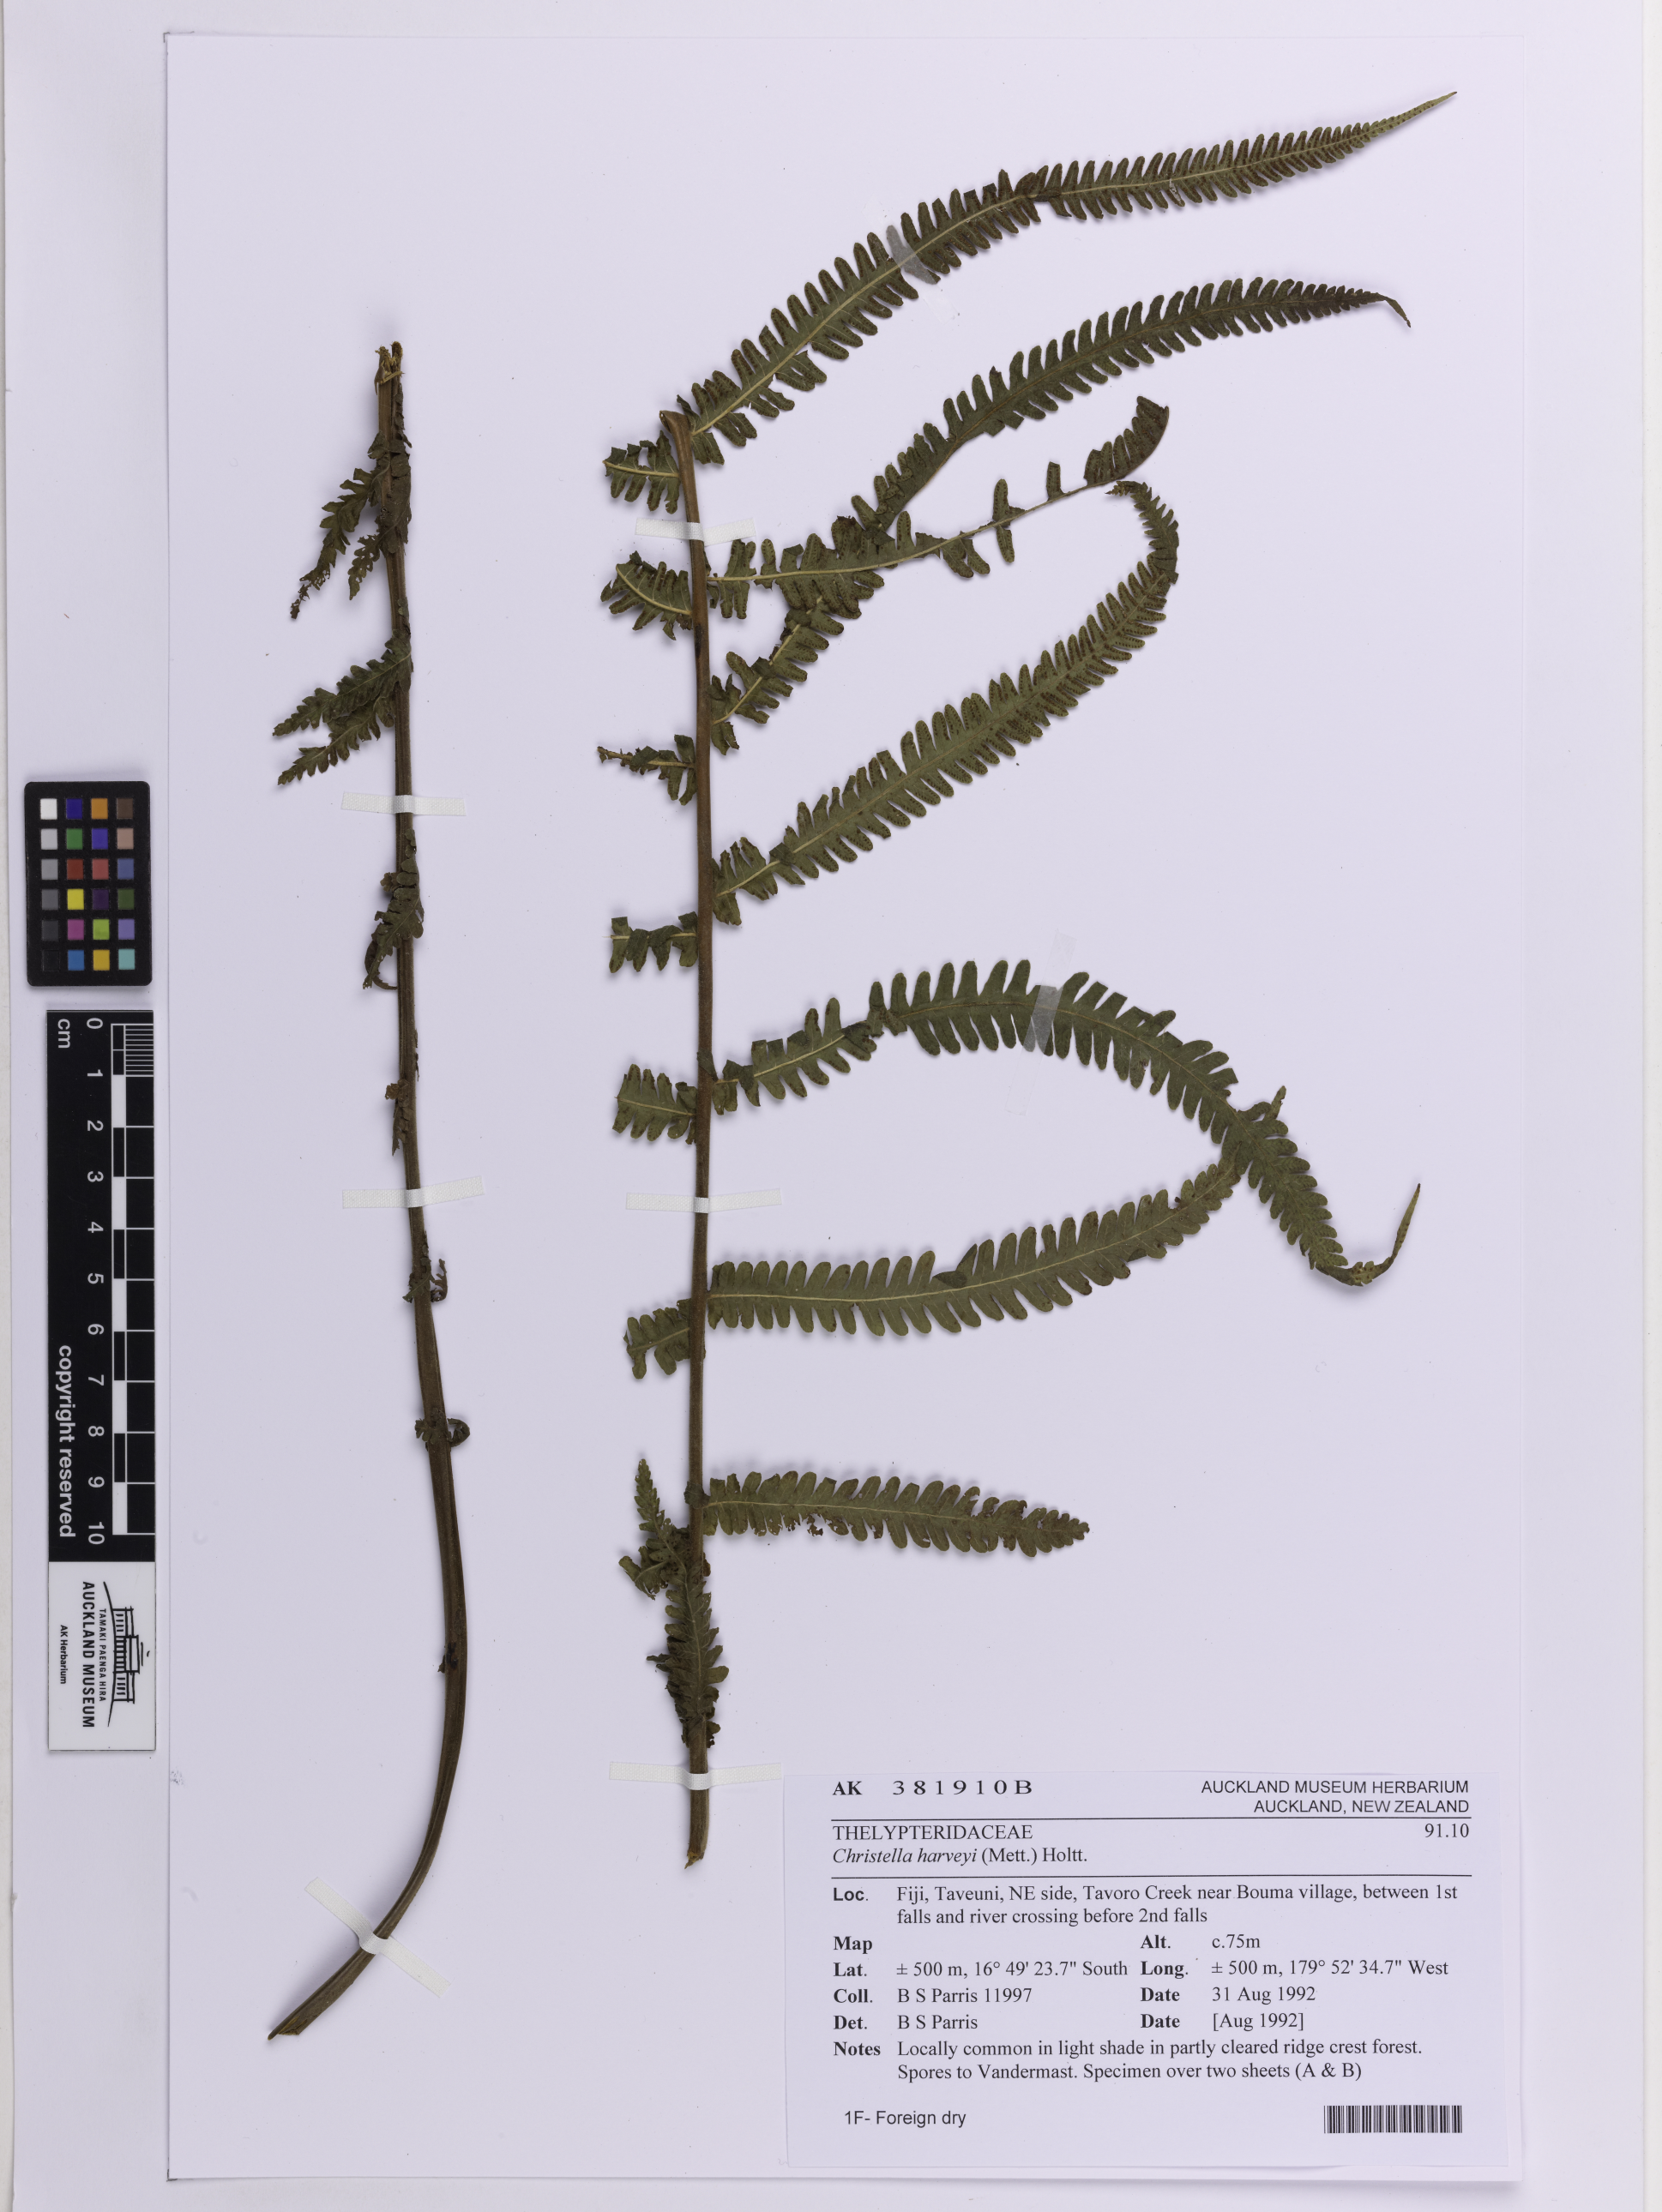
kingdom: Plantae
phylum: Tracheophyta
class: Polypodiopsida
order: Polypodiales
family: Thelypteridaceae
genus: Christella
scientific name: Christella harveyi
